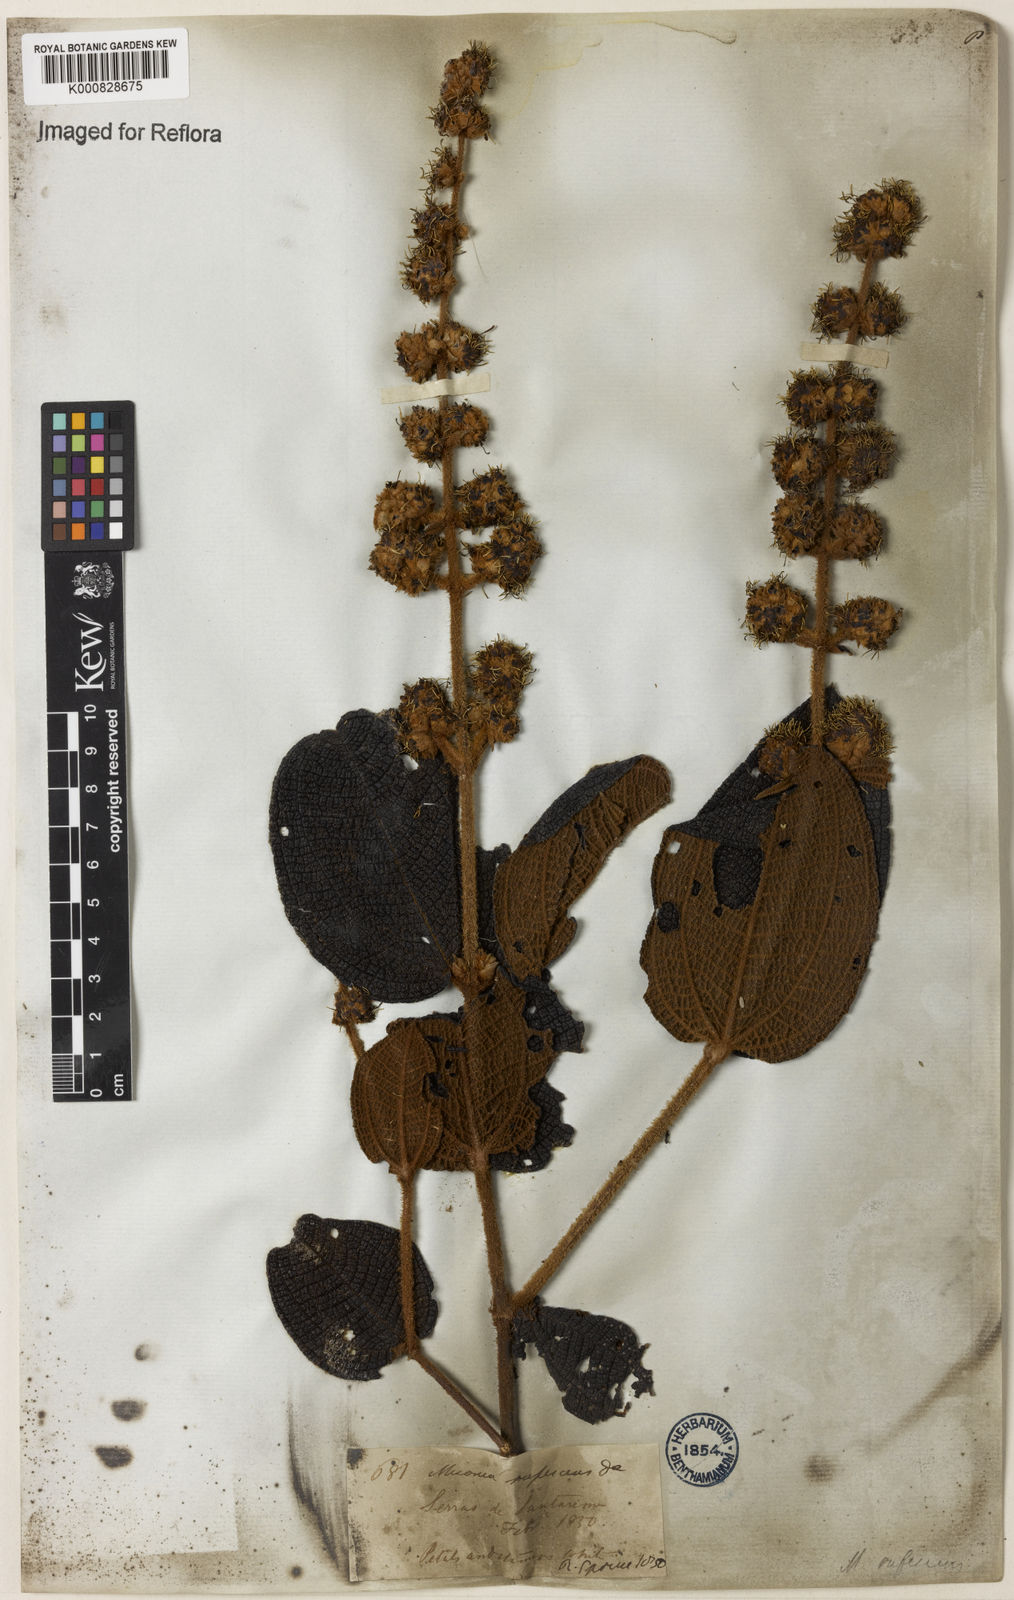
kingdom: Plantae
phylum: Tracheophyta
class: Magnoliopsida
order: Myrtales
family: Melastomataceae
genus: Miconia
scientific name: Miconia rufescens
